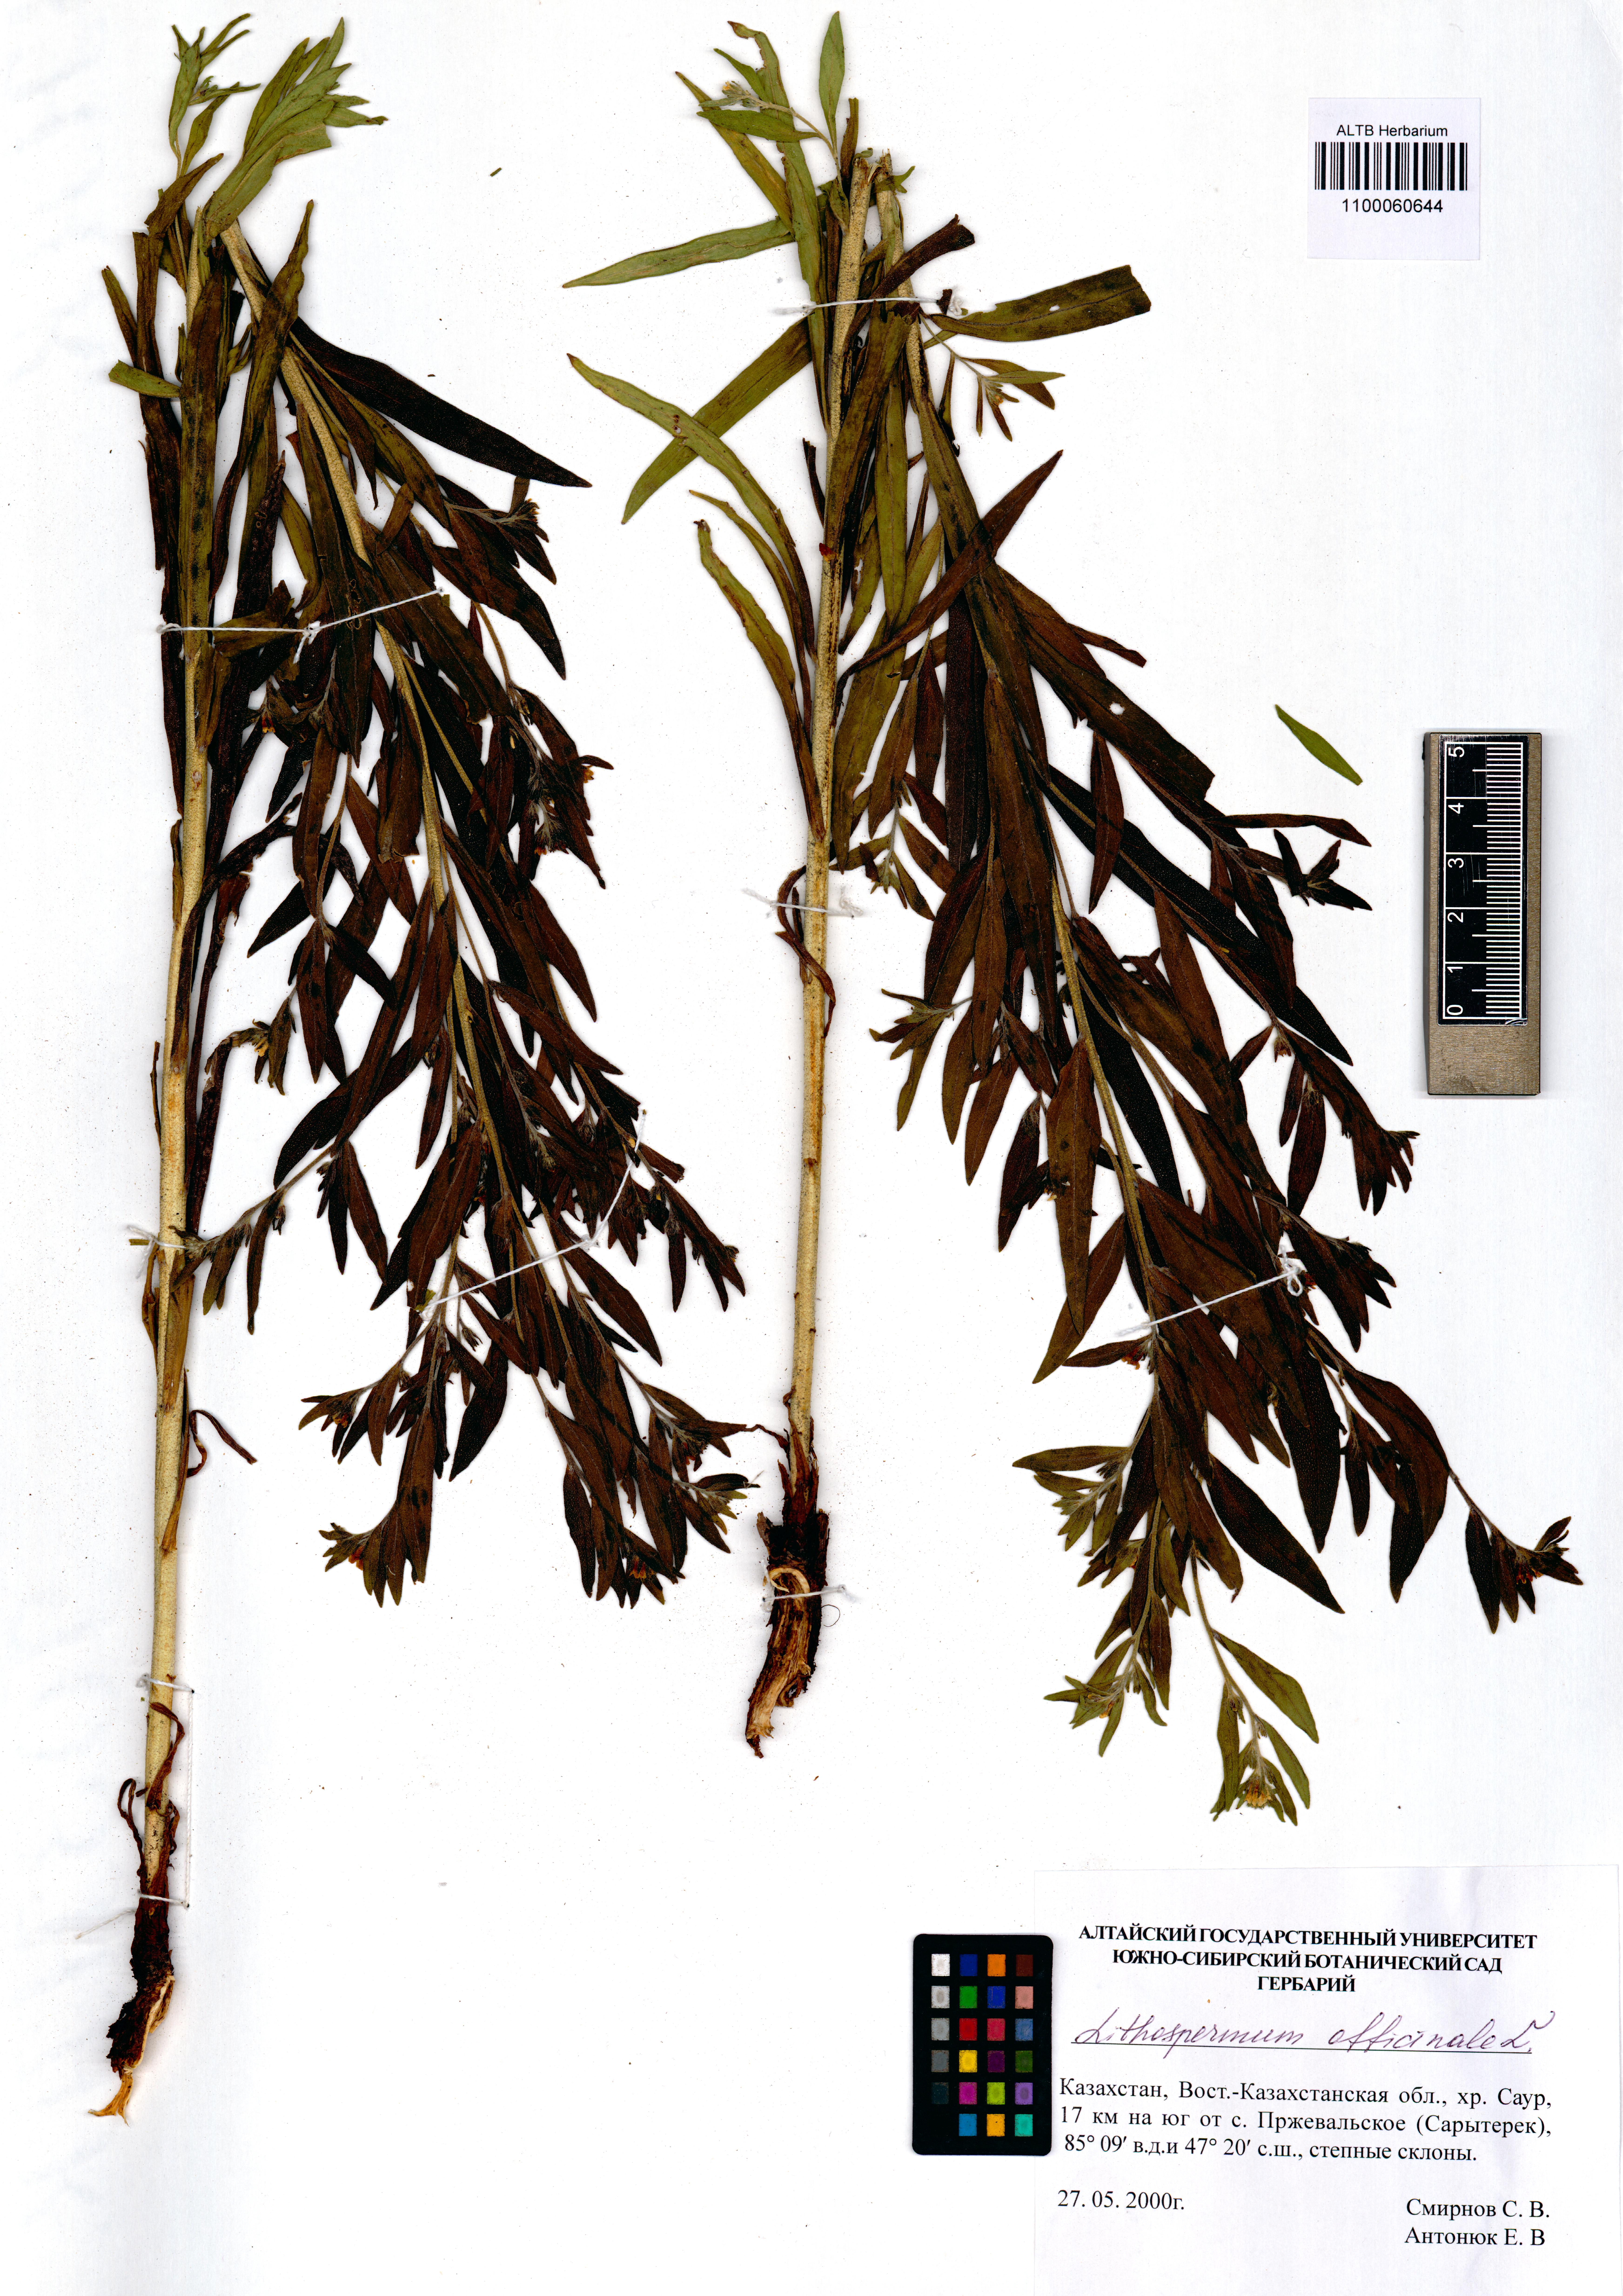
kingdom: Plantae
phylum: Tracheophyta
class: Magnoliopsida
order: Boraginales
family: Boraginaceae
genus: Lithospermum
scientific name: Lithospermum officinale
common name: Common gromwell
